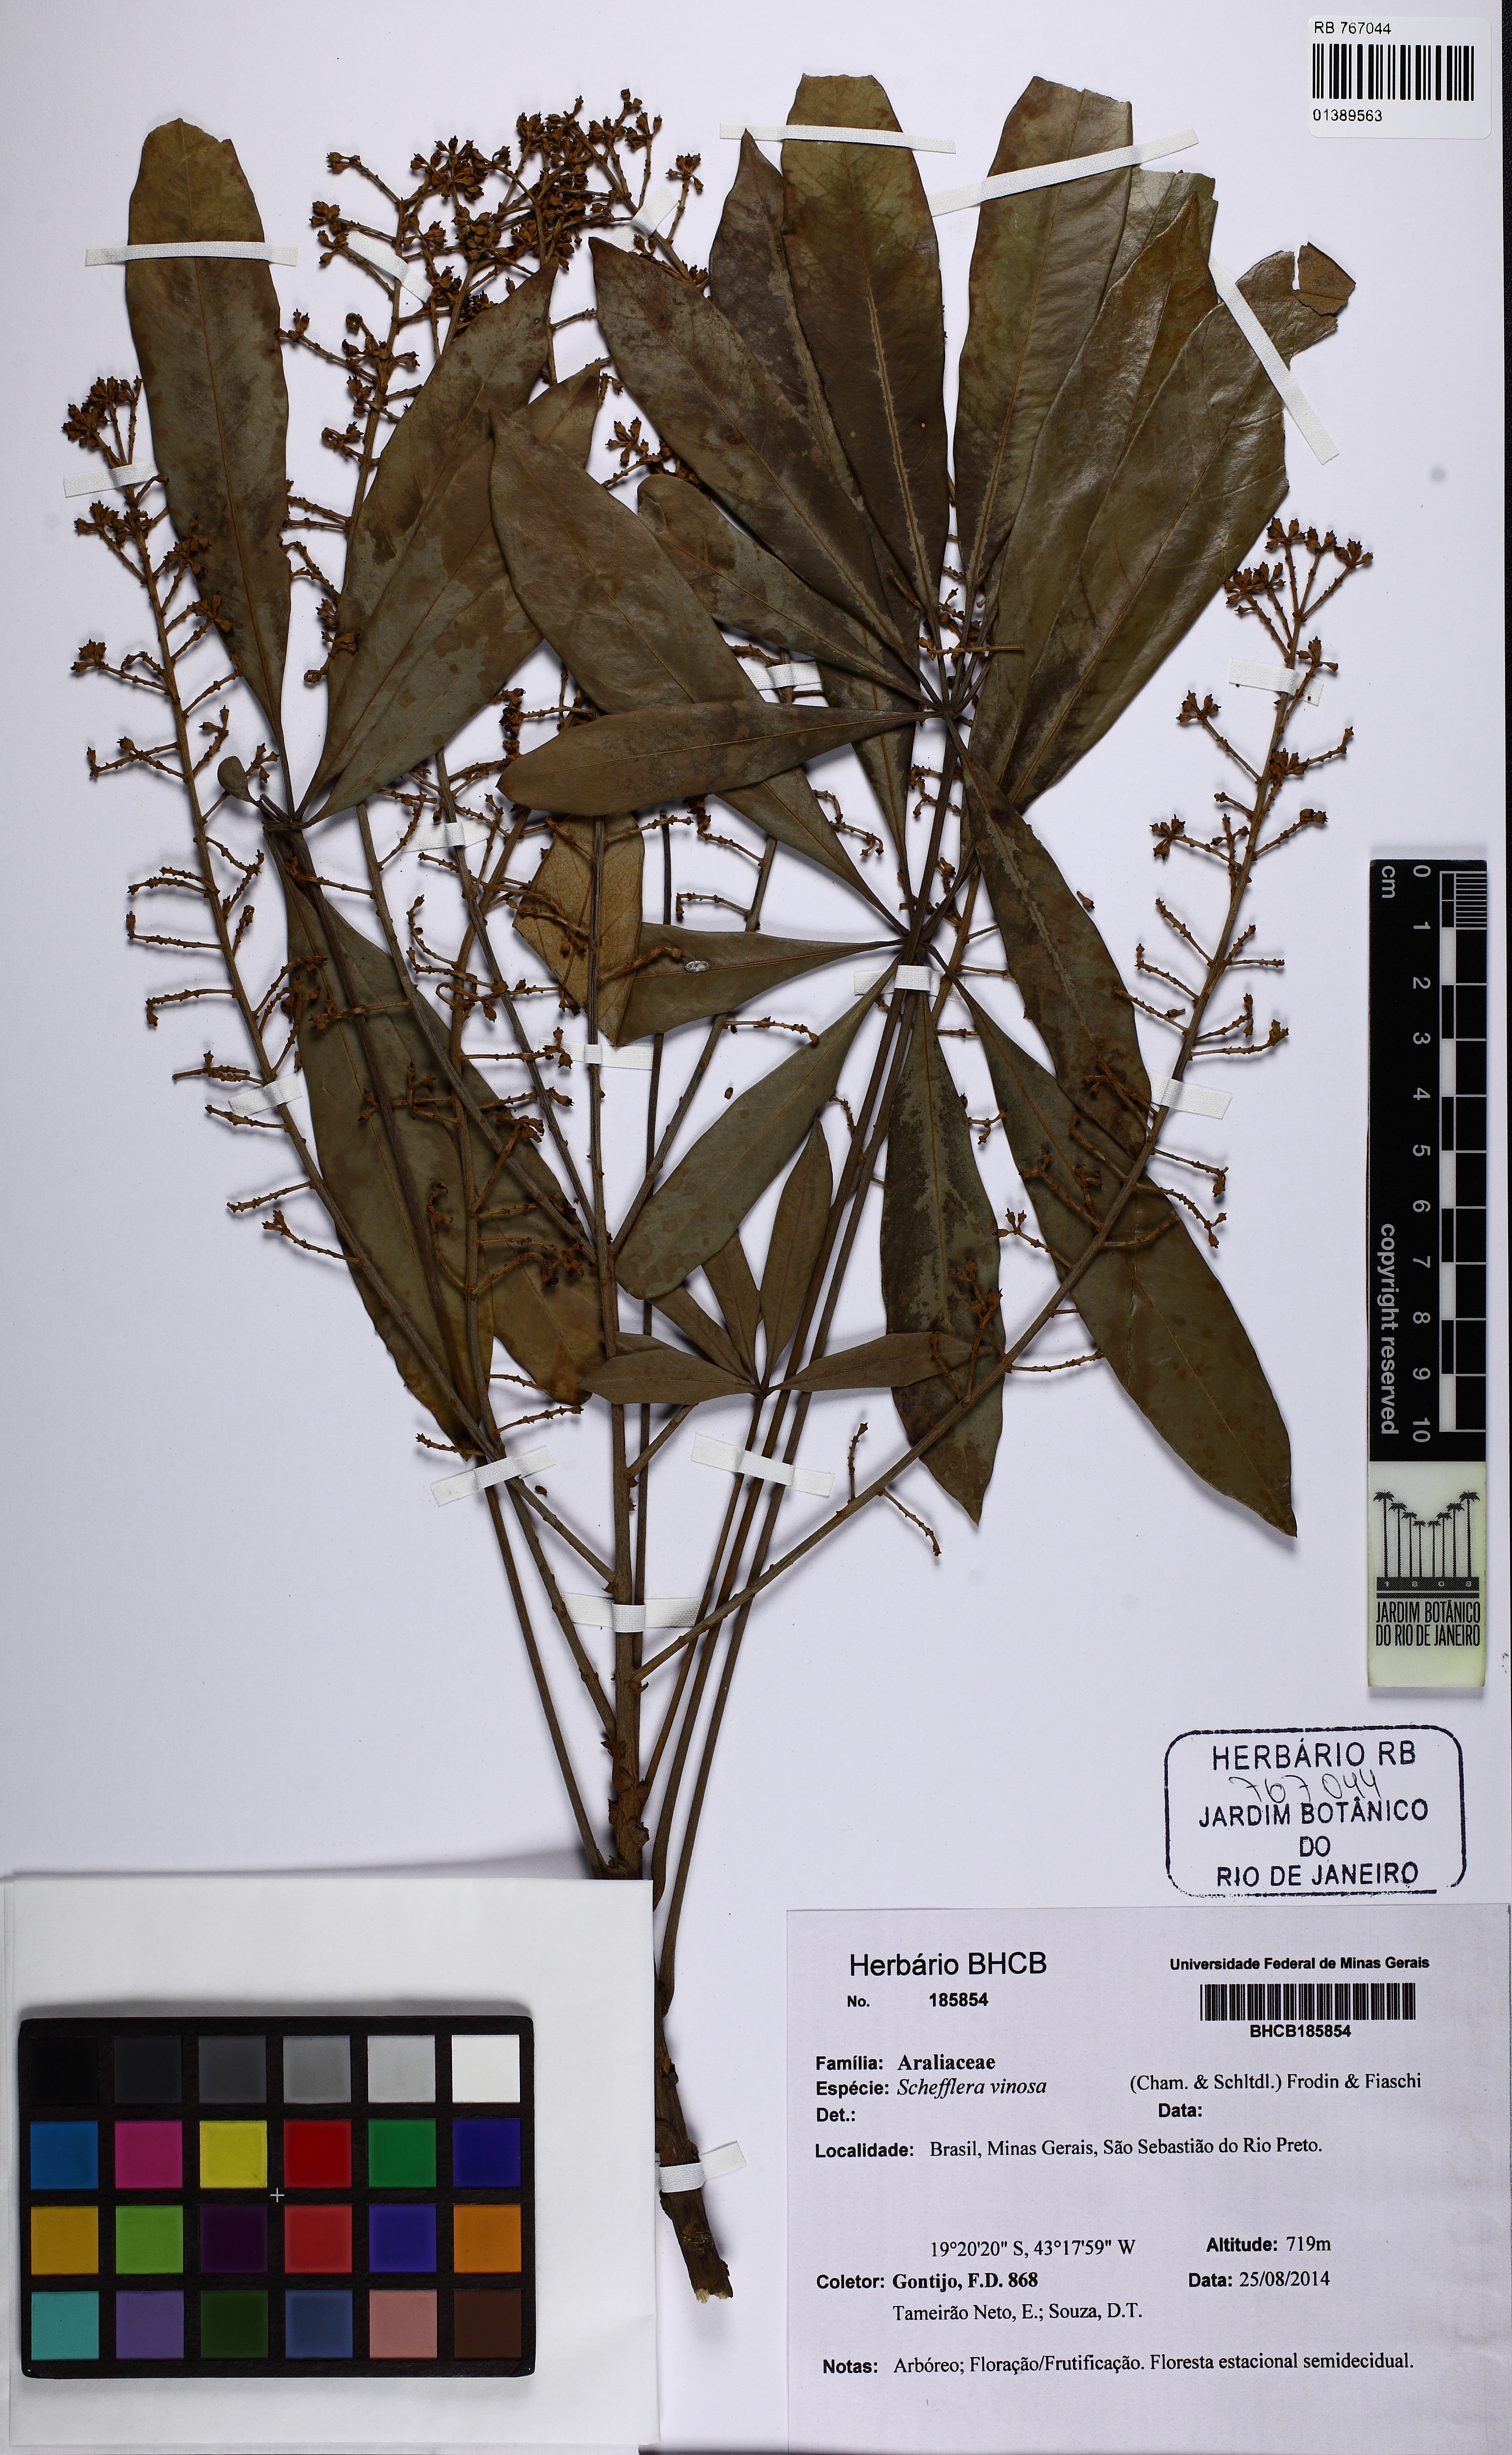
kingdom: Plantae
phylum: Tracheophyta
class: Magnoliopsida
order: Apiales
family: Araliaceae
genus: Didymopanax
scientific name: Didymopanax vinosus
